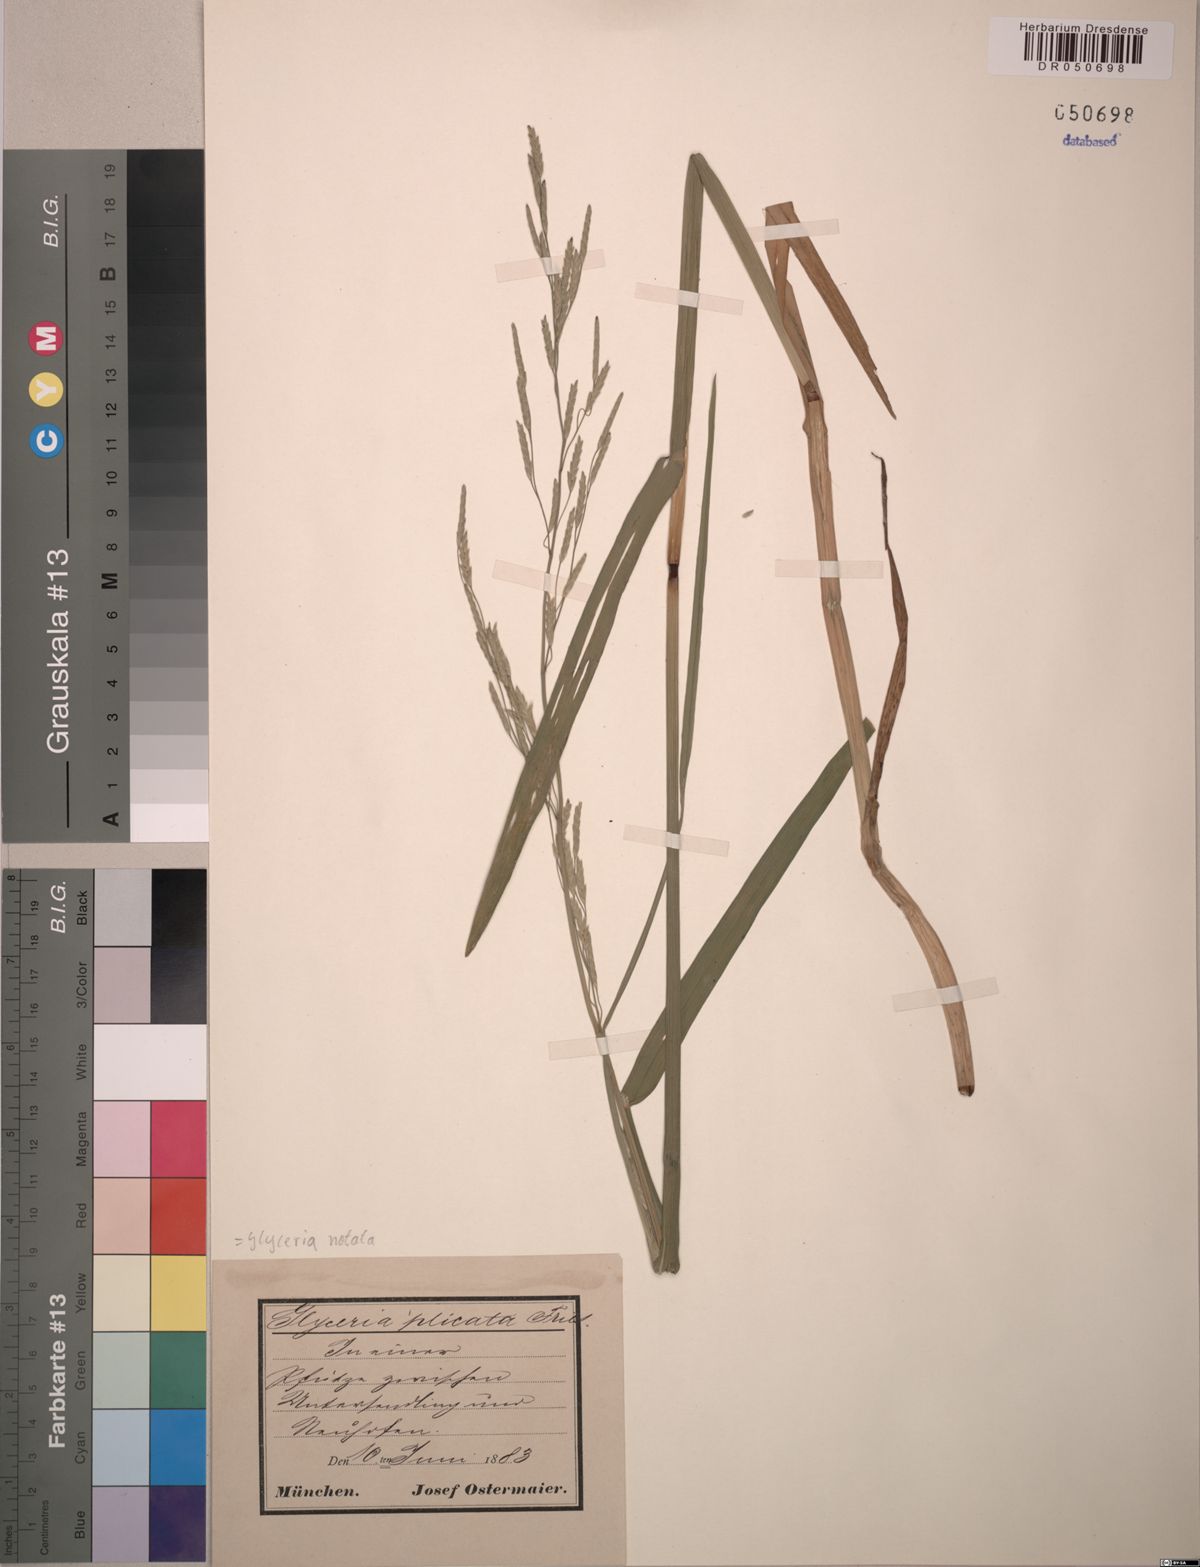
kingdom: Plantae
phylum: Tracheophyta
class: Liliopsida
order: Poales
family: Poaceae
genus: Glyceria
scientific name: Glyceria notata
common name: Plicate sweet-grass
